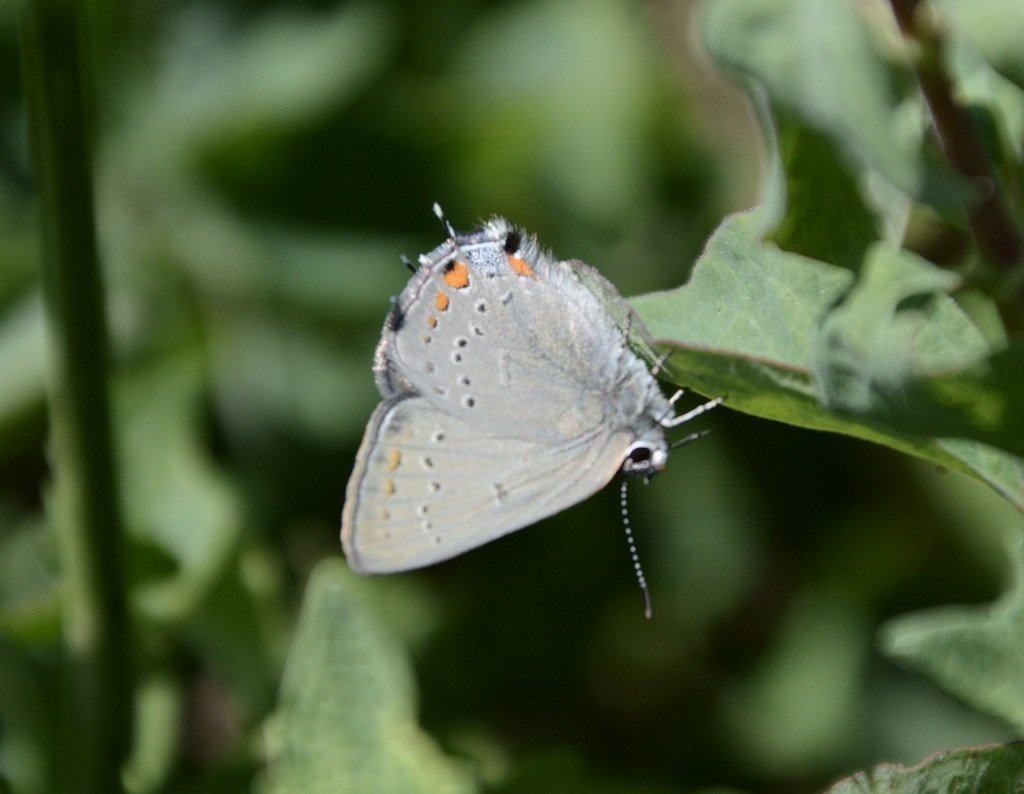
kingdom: Animalia
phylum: Arthropoda
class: Insecta
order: Lepidoptera
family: Lycaenidae
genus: Strymon
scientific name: Strymon acadica
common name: California Hairstreak
